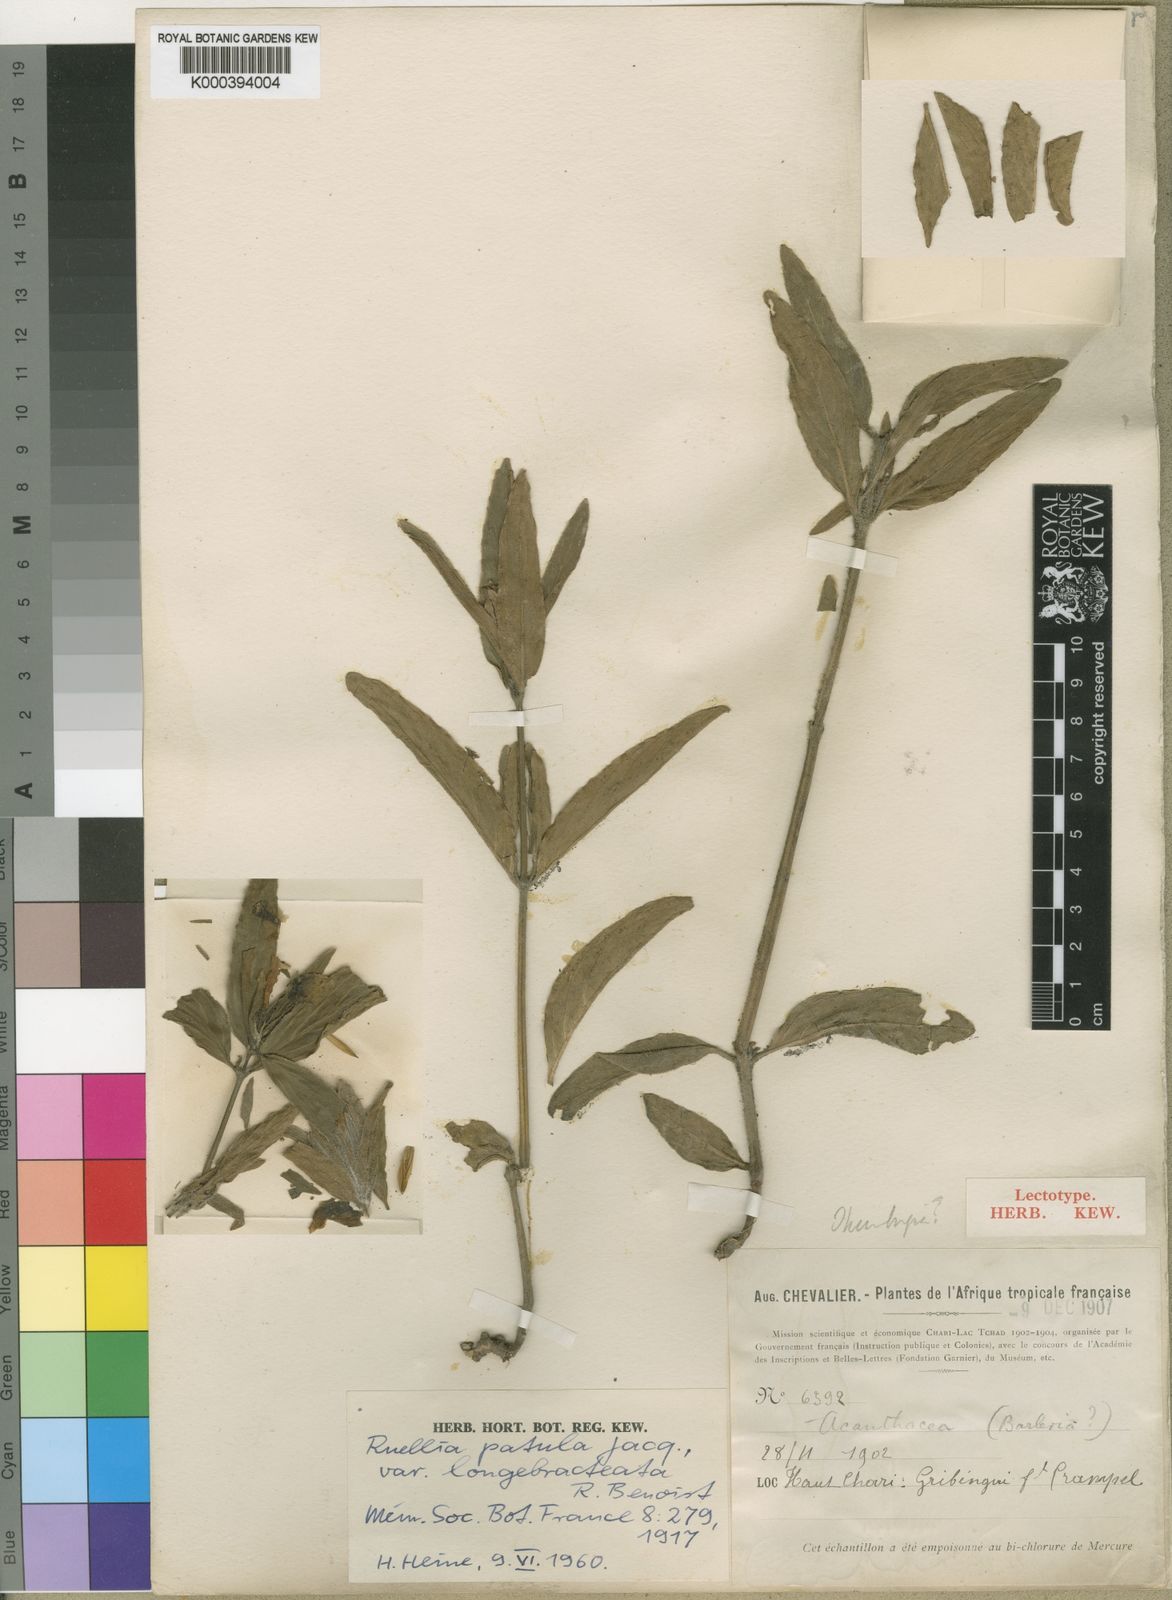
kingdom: Plantae
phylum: Tracheophyta
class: Magnoliopsida
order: Lamiales
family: Acanthaceae
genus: Ruellia
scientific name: Ruellia patula
